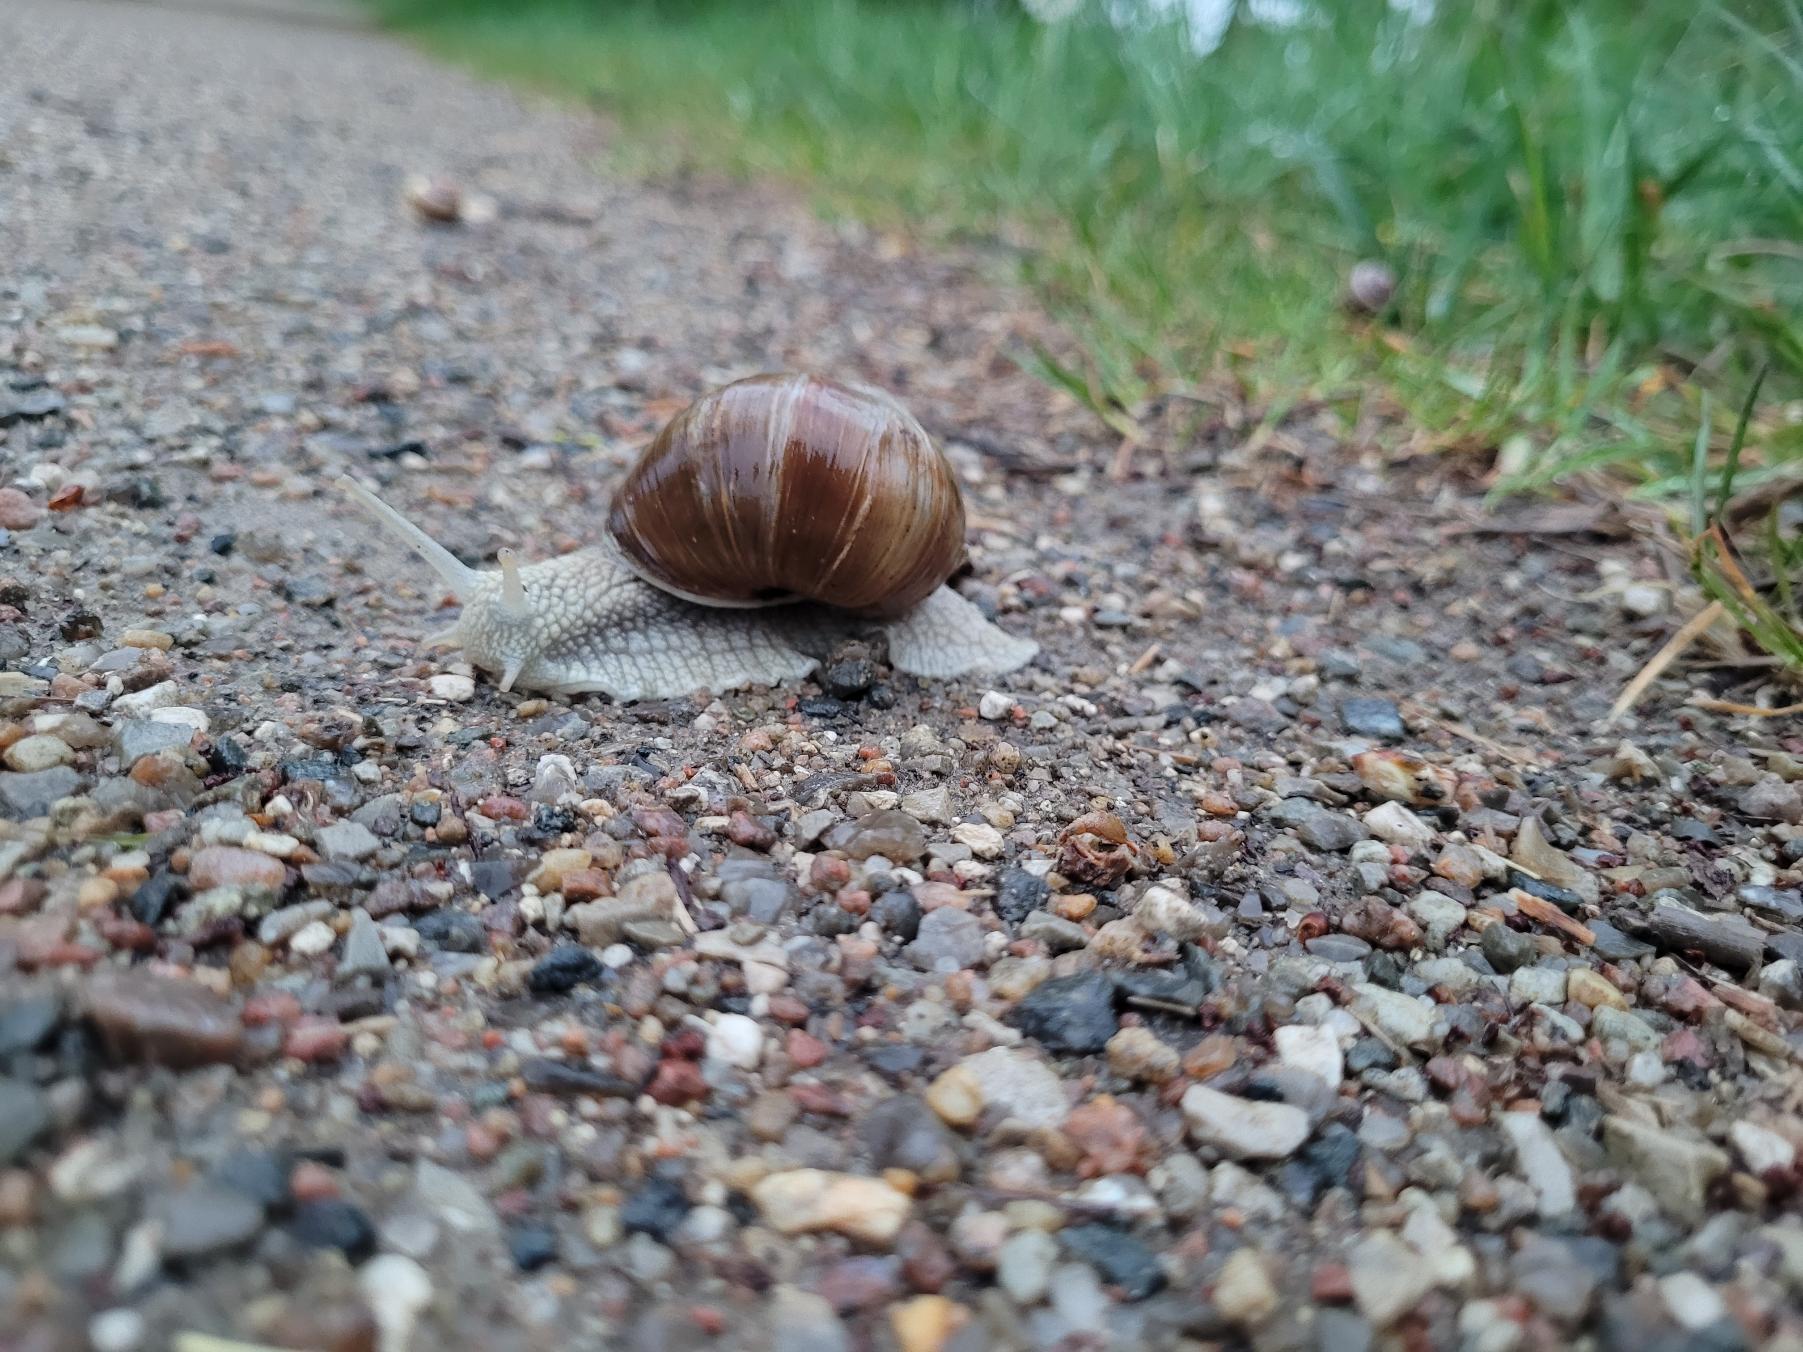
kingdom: Animalia
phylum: Mollusca
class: Gastropoda
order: Stylommatophora
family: Helicidae
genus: Helix
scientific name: Helix pomatia
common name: Vinbjergsnegl
